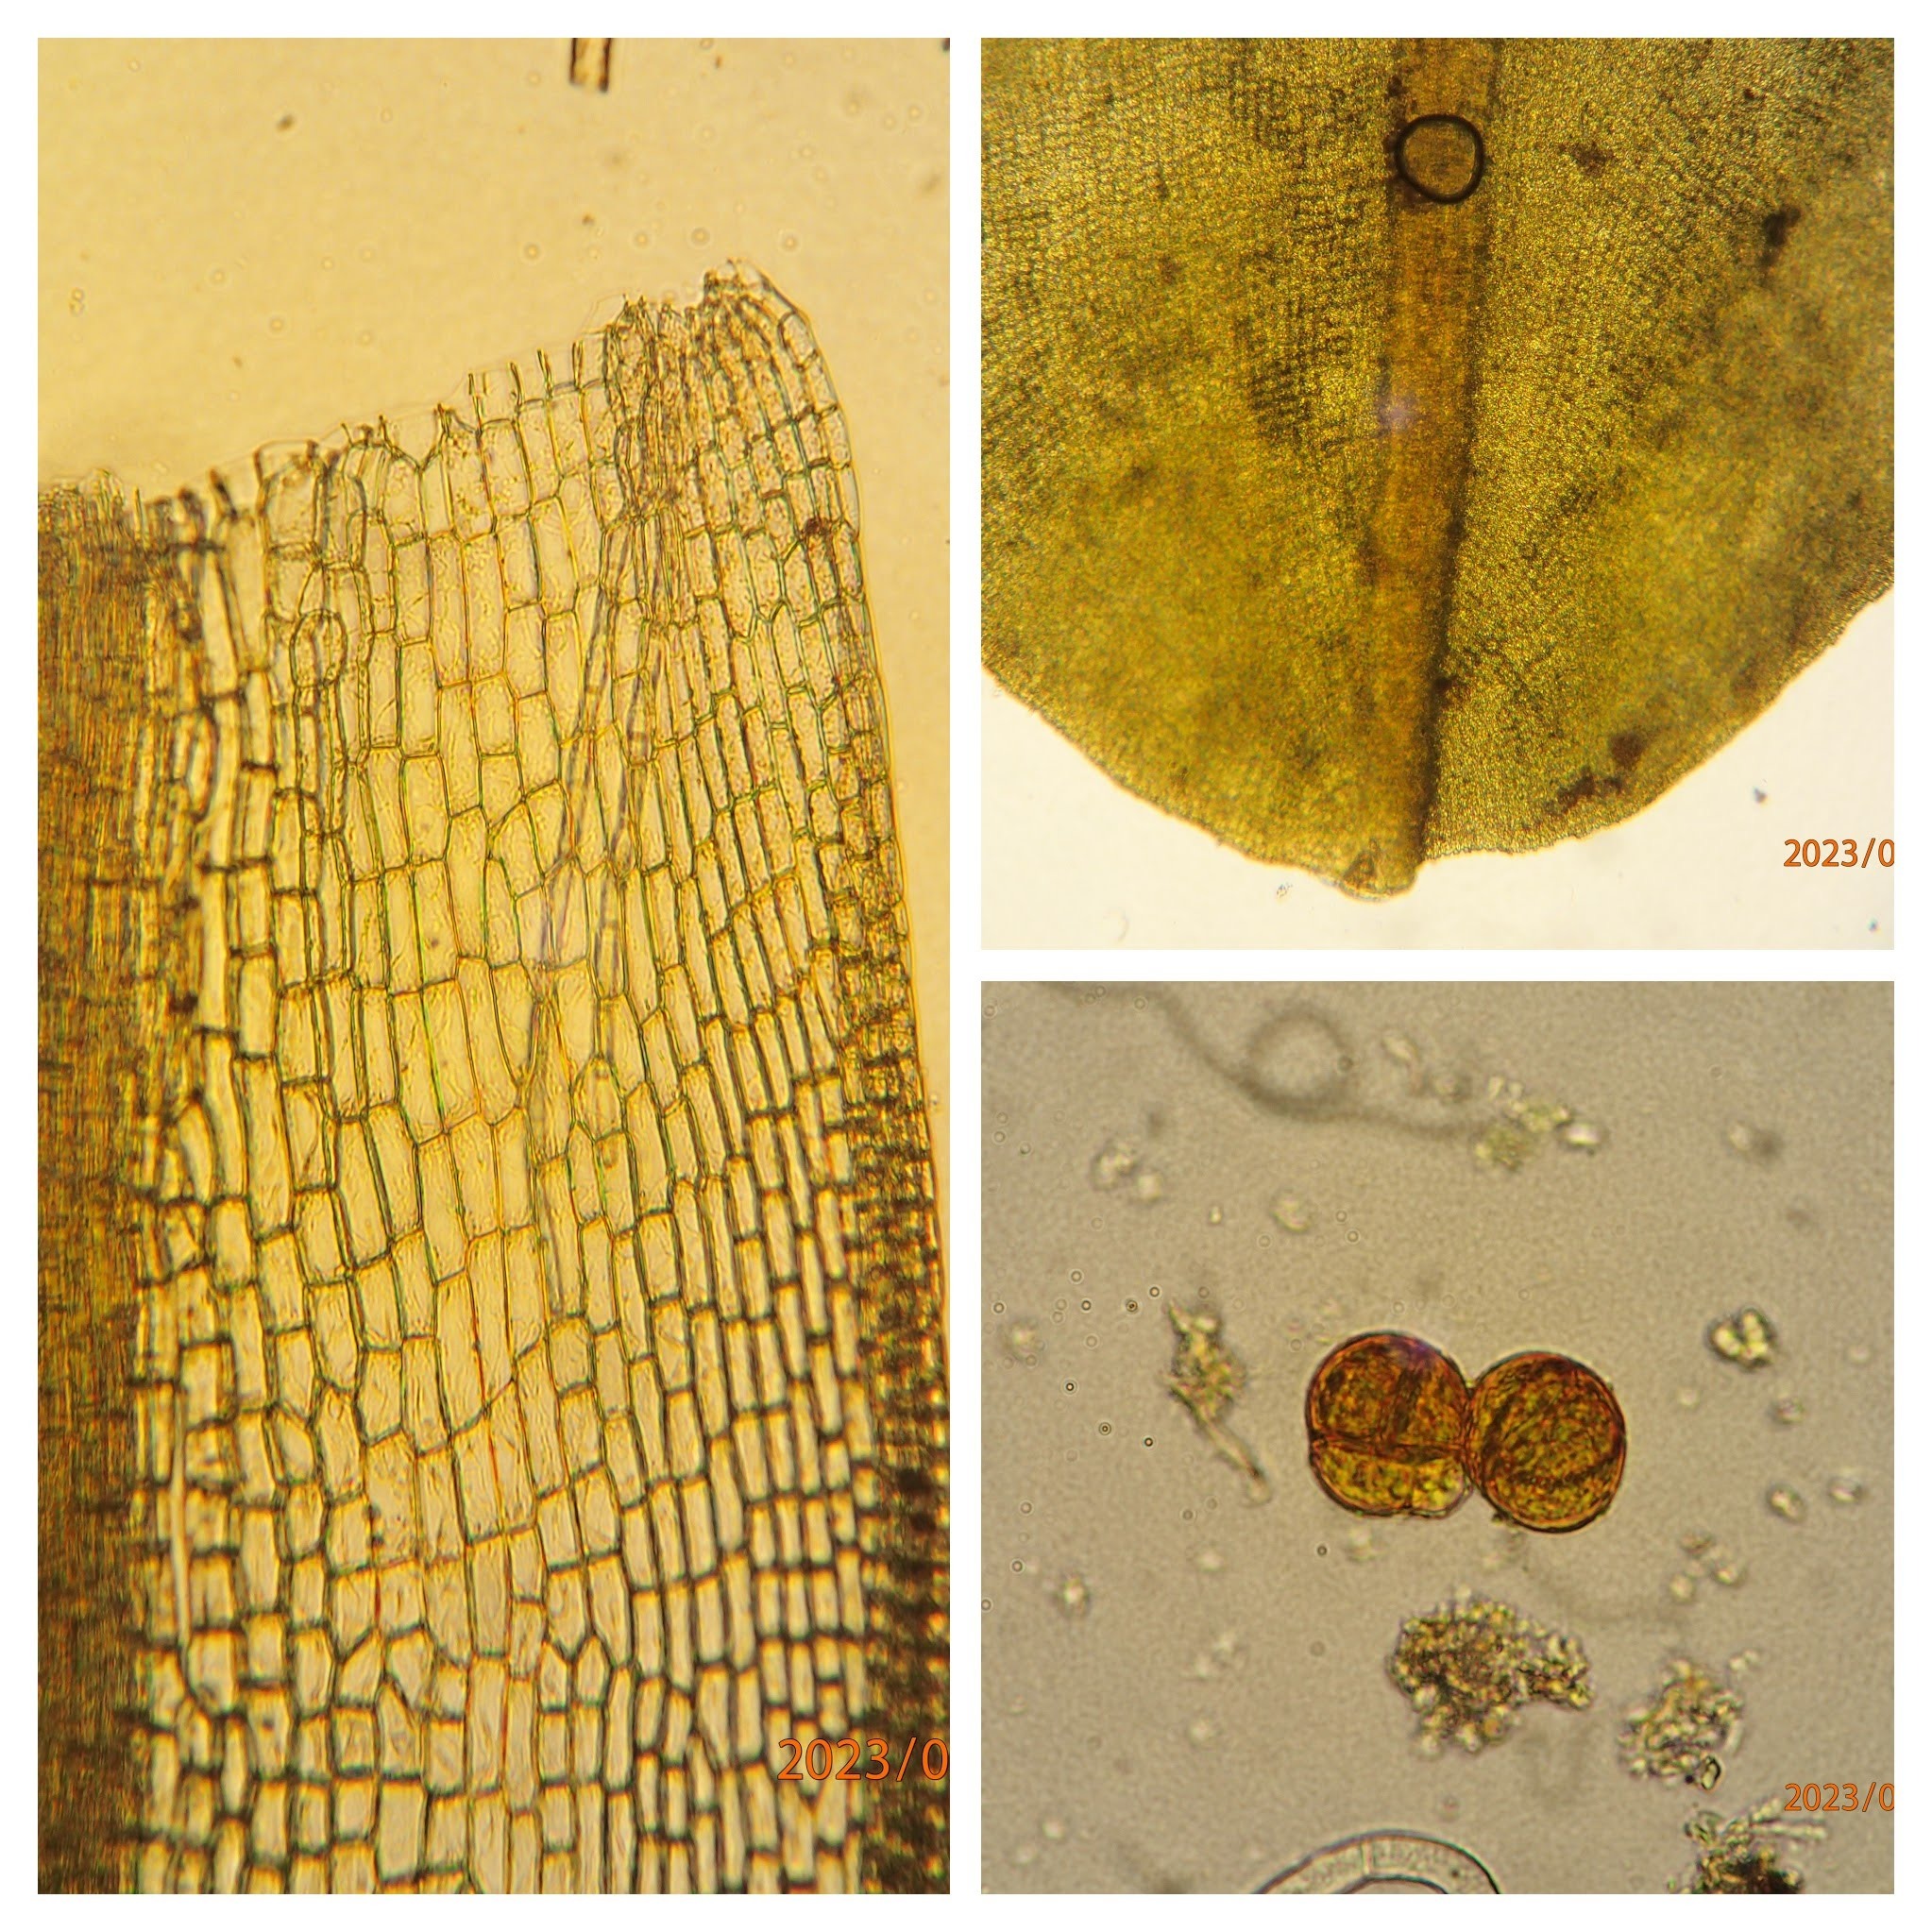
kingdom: Plantae
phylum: Bryophyta
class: Bryopsida
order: Pottiales
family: Pottiaceae
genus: Syntrichia
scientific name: Syntrichia latifolia
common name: Butbladet hårstjerne
